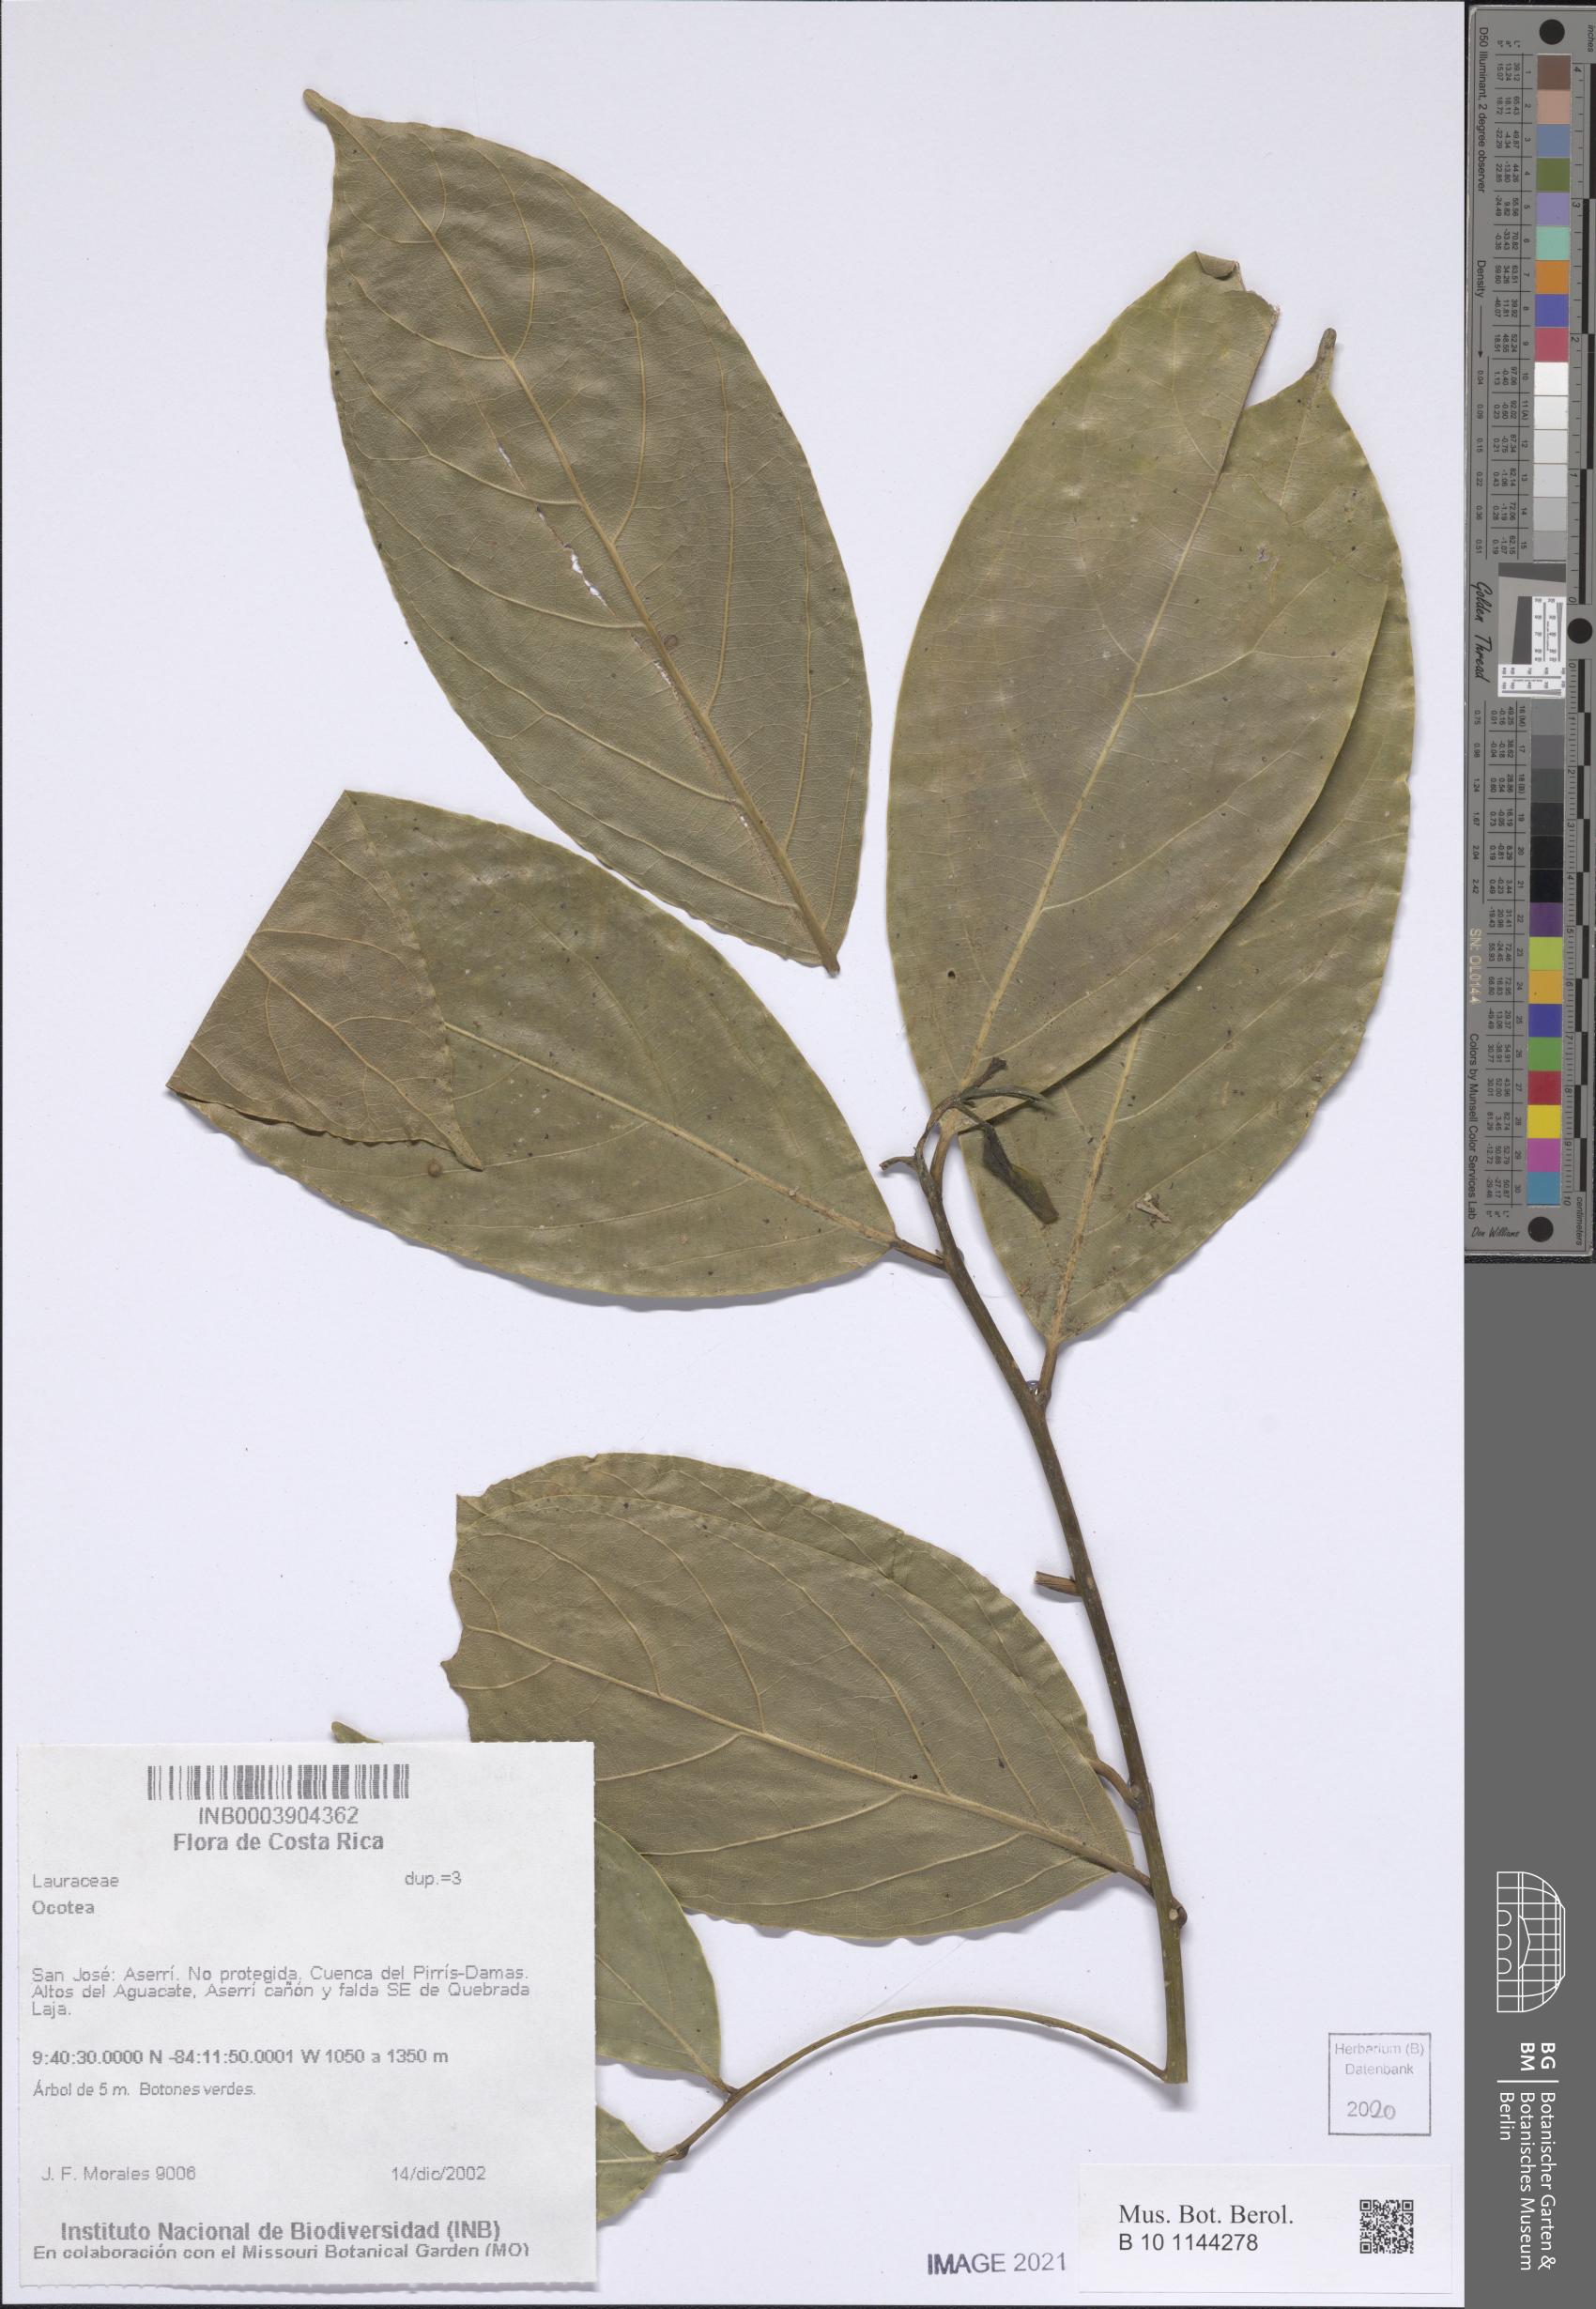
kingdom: Plantae
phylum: Tracheophyta
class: Magnoliopsida
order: Laurales
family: Lauraceae
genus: Ocotea
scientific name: Ocotea
